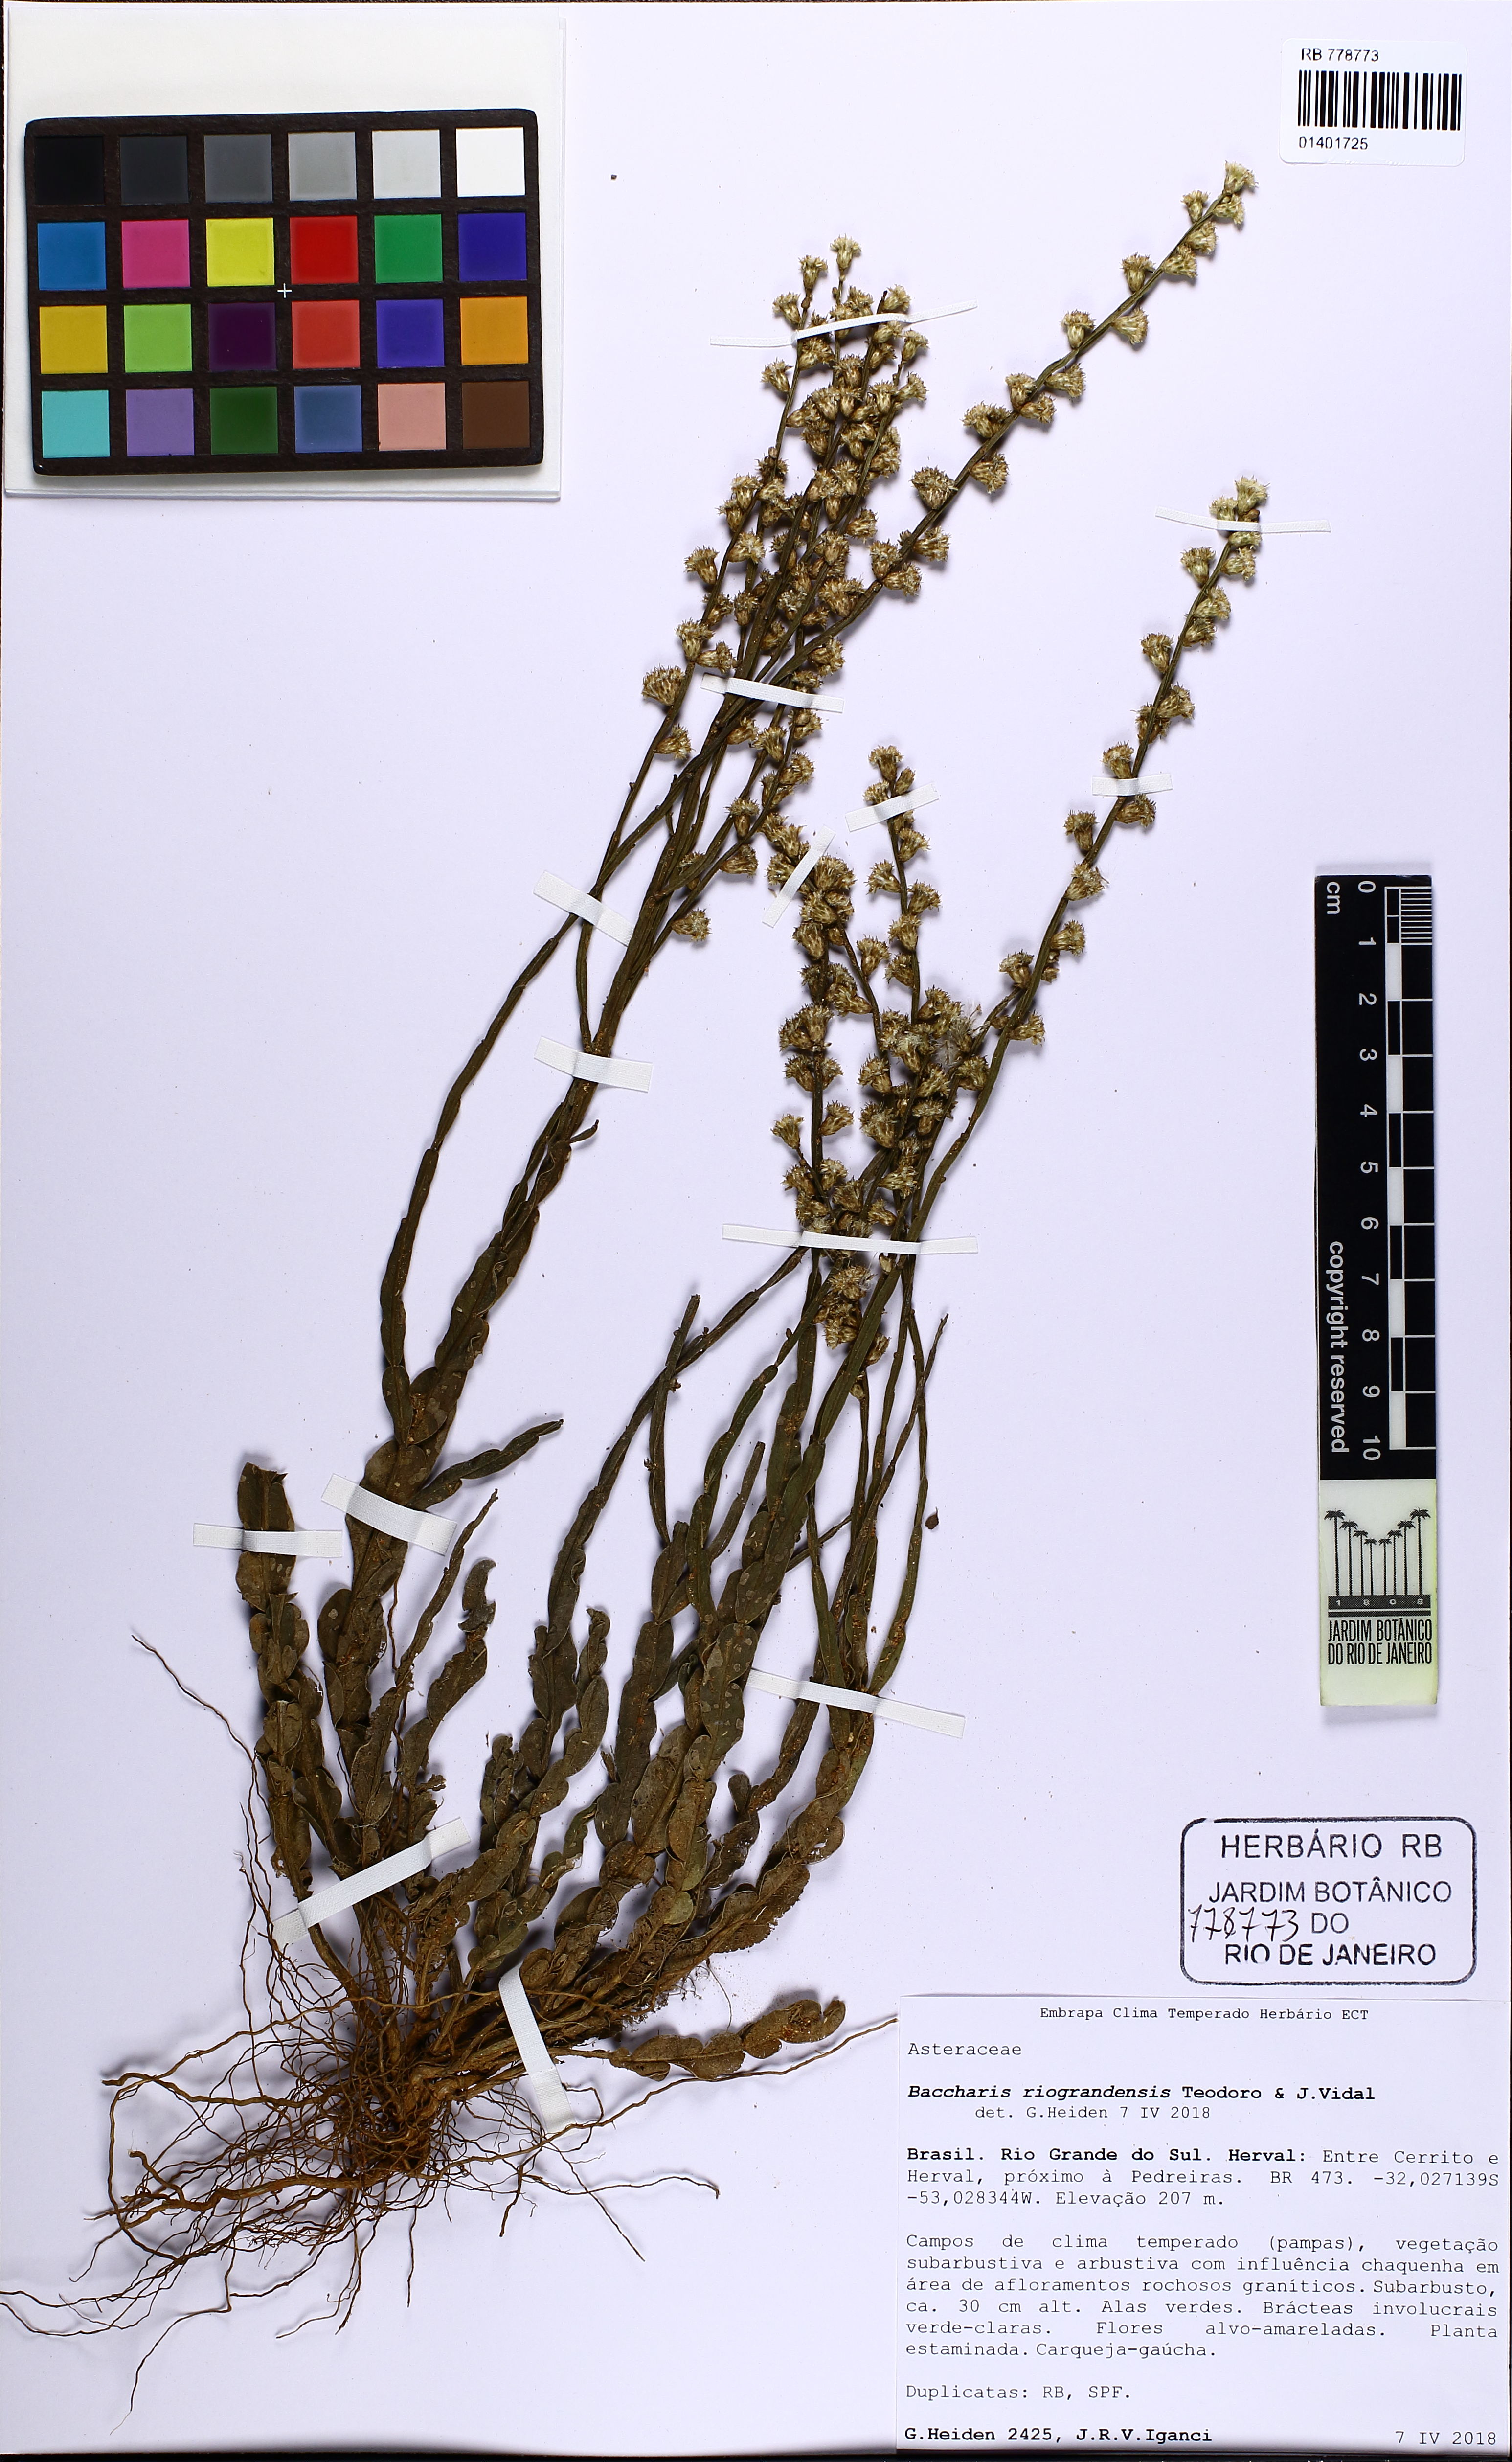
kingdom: Plantae
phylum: Tracheophyta
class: Magnoliopsida
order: Asterales
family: Asteraceae
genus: Baccharis
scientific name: Baccharis riograndensis
